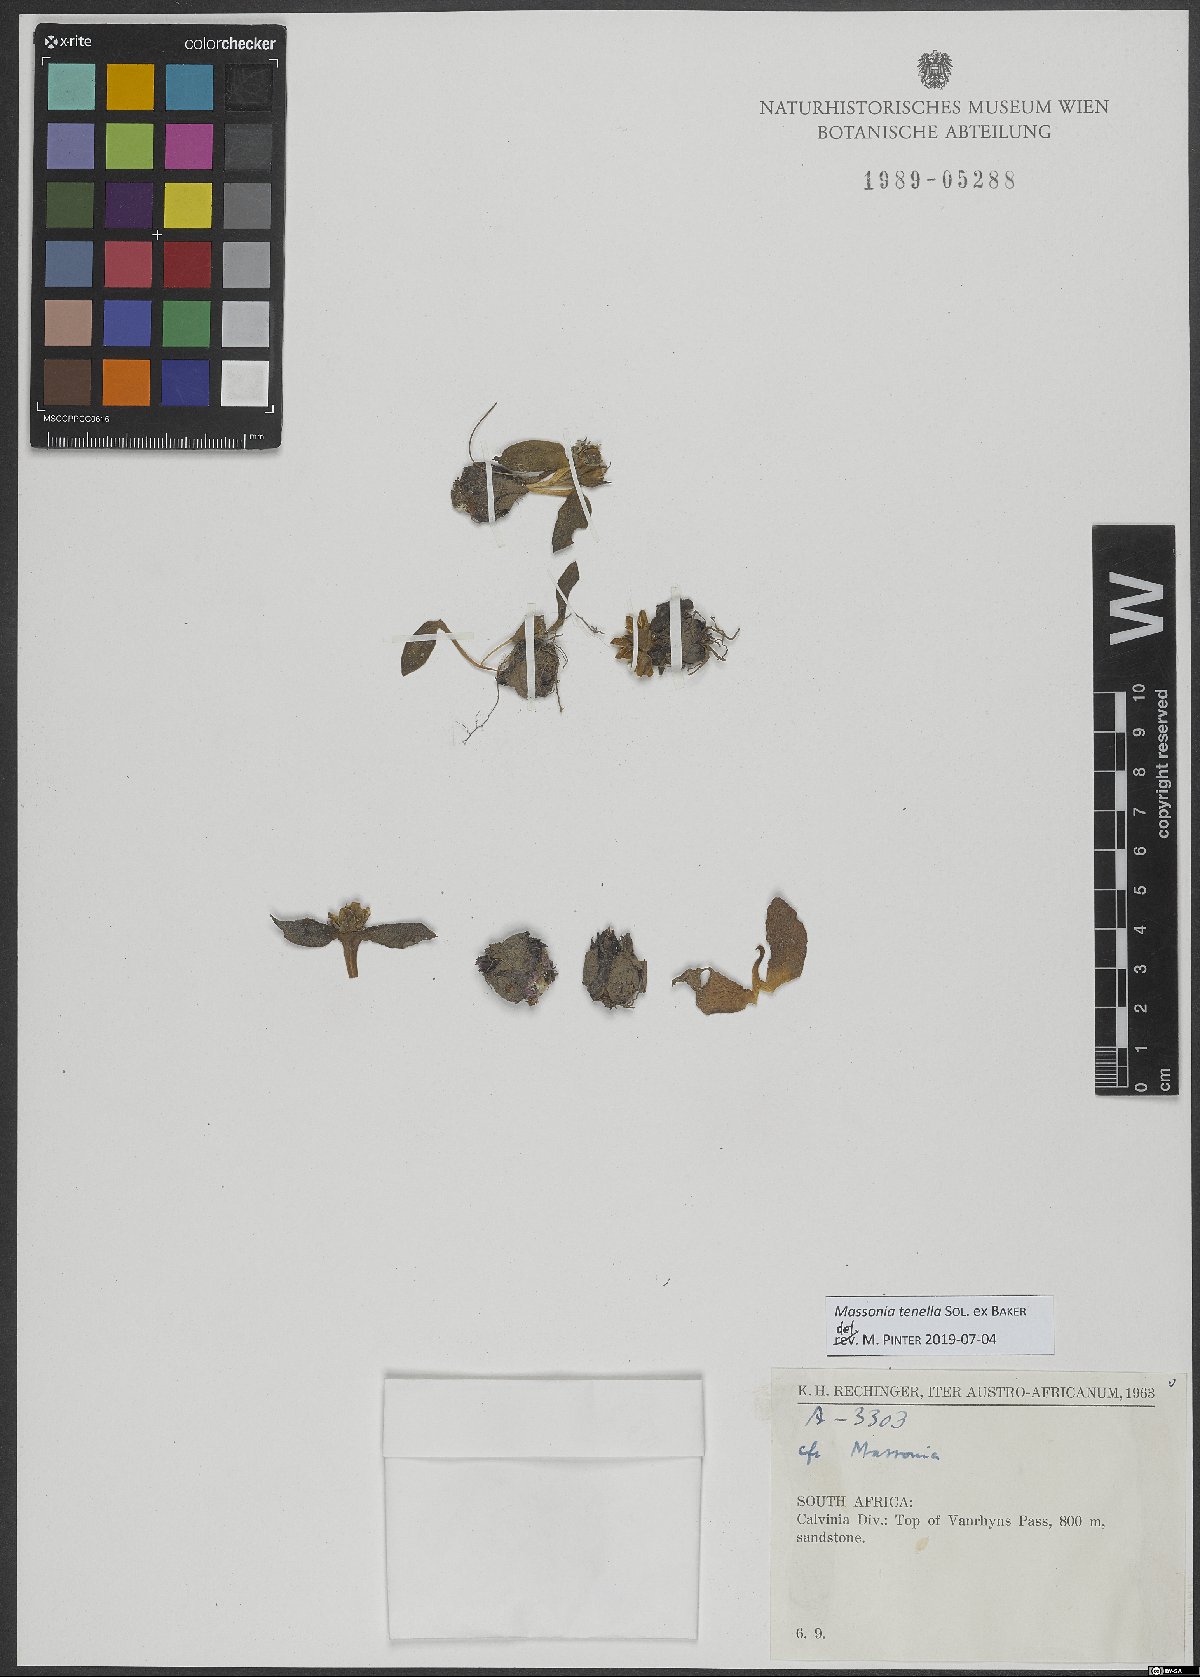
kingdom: Plantae
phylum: Tracheophyta
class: Liliopsida
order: Asparagales
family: Asparagaceae
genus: Massonia
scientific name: Massonia tenella
